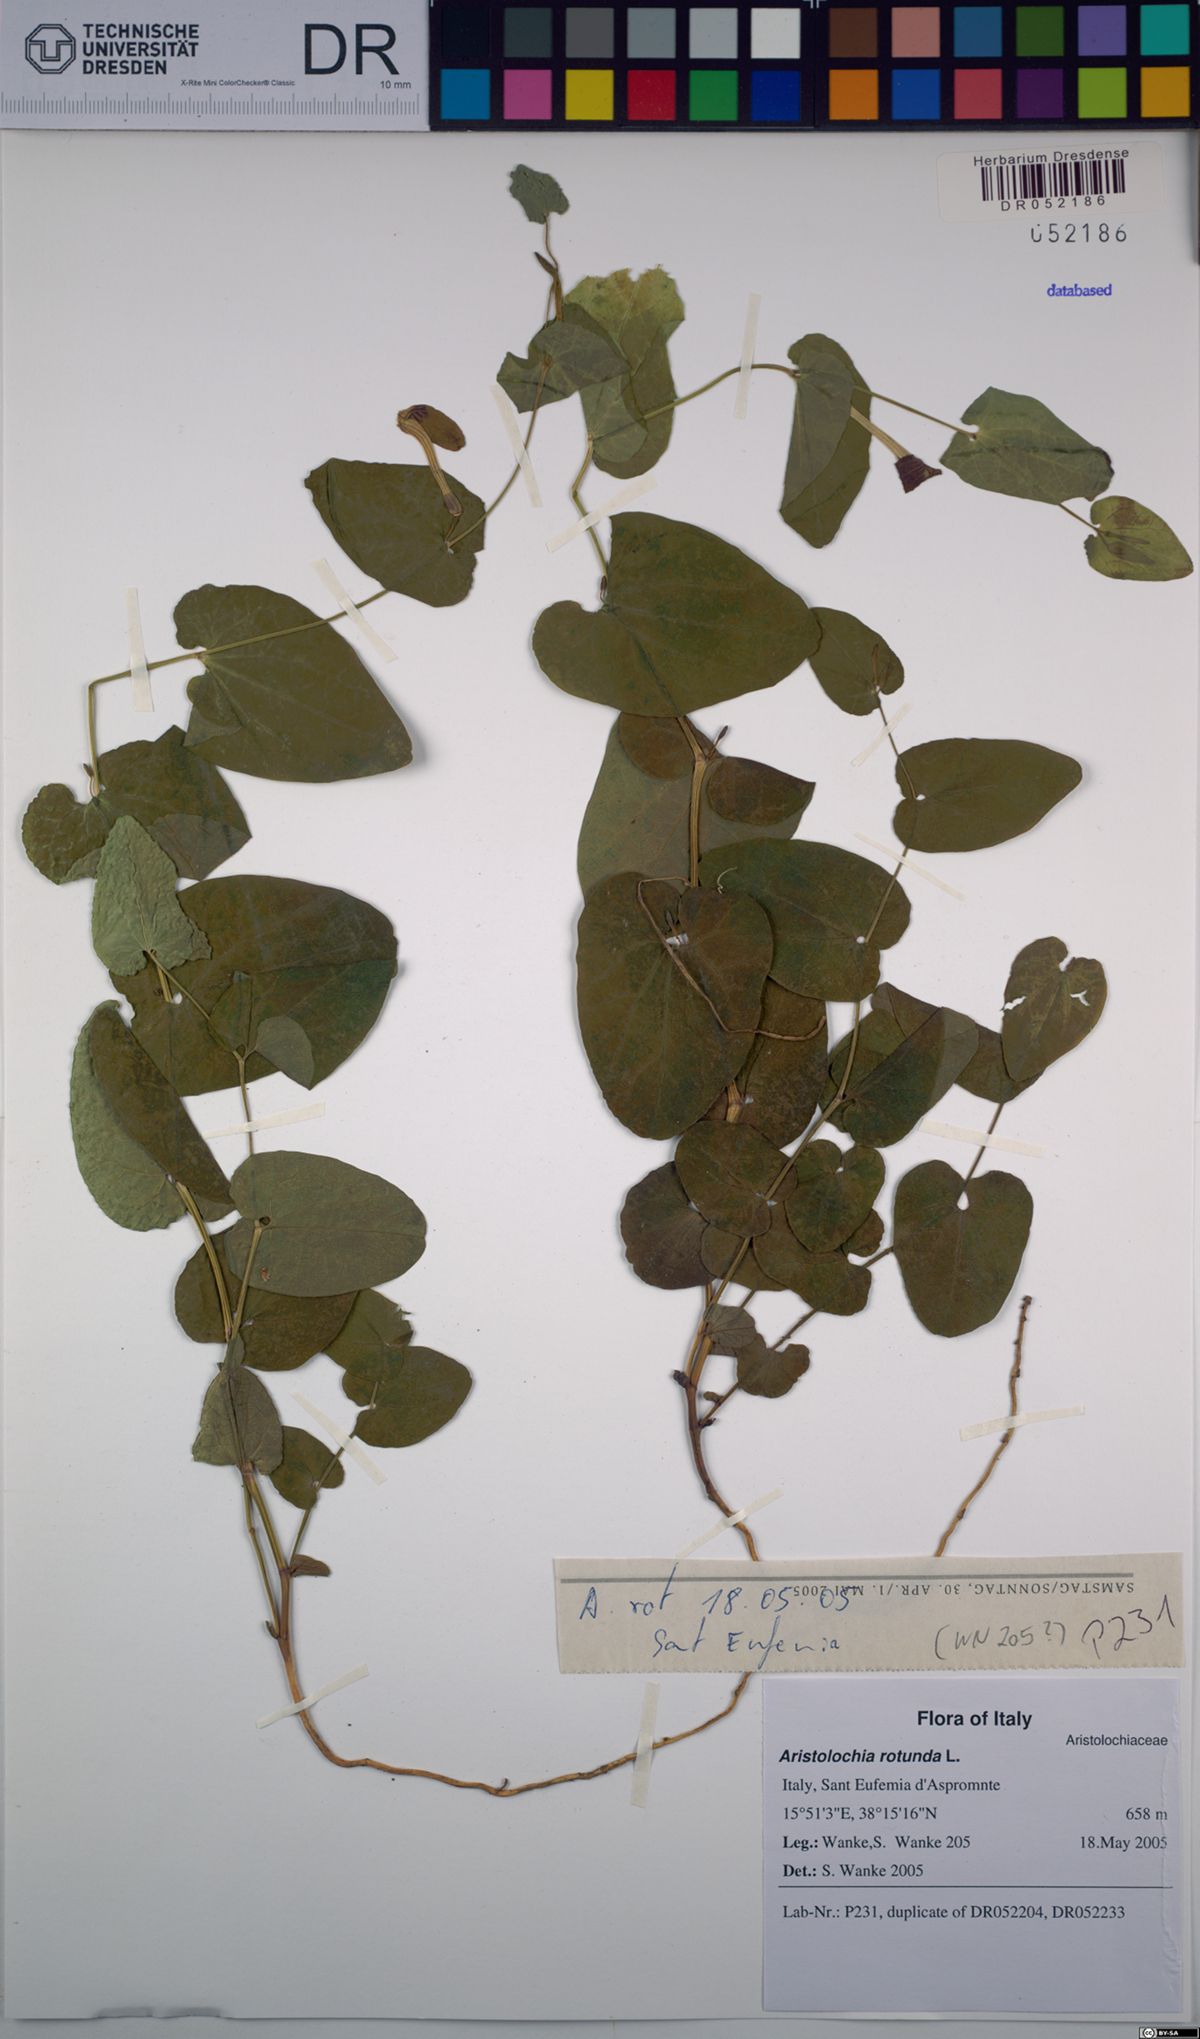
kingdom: Plantae
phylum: Tracheophyta
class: Magnoliopsida
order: Piperales
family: Aristolochiaceae
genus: Aristolochia
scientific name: Aristolochia rotunda
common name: Smearwort
